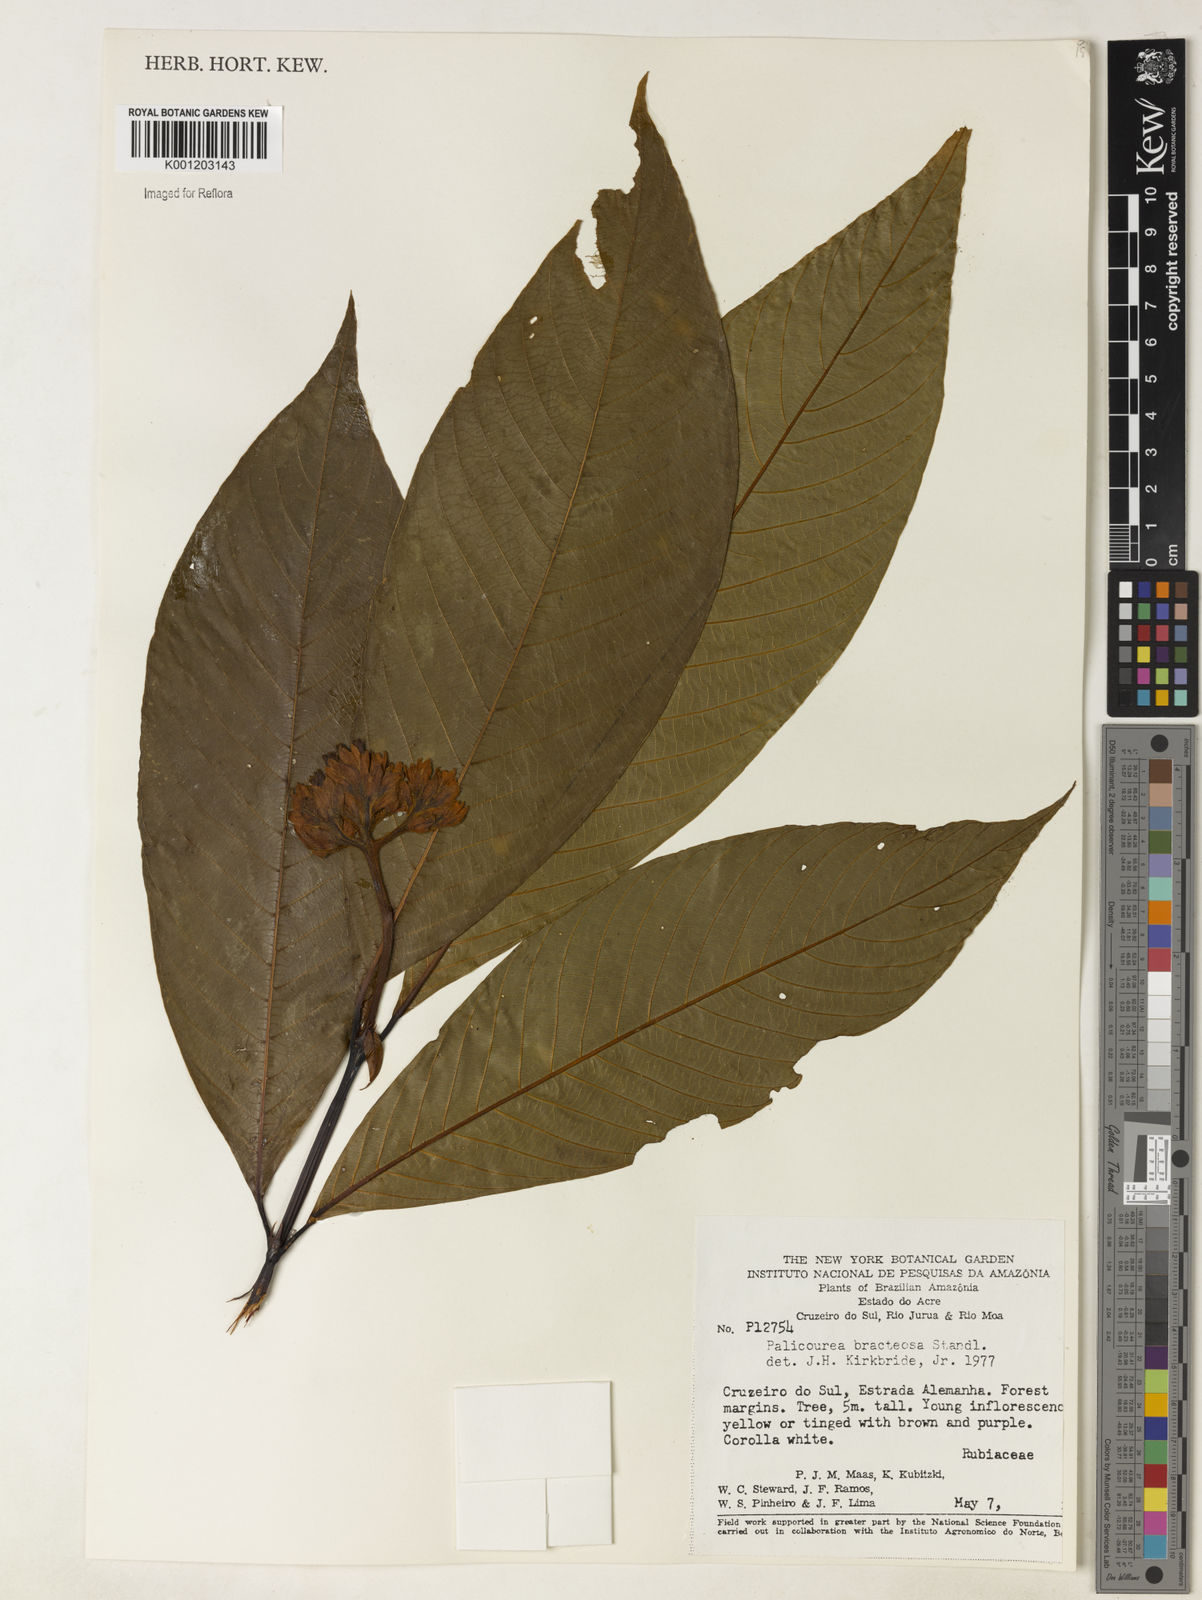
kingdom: Plantae
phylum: Tracheophyta
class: Magnoliopsida
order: Gentianales
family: Rubiaceae
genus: Palicourea
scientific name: Palicourea bracteosa
